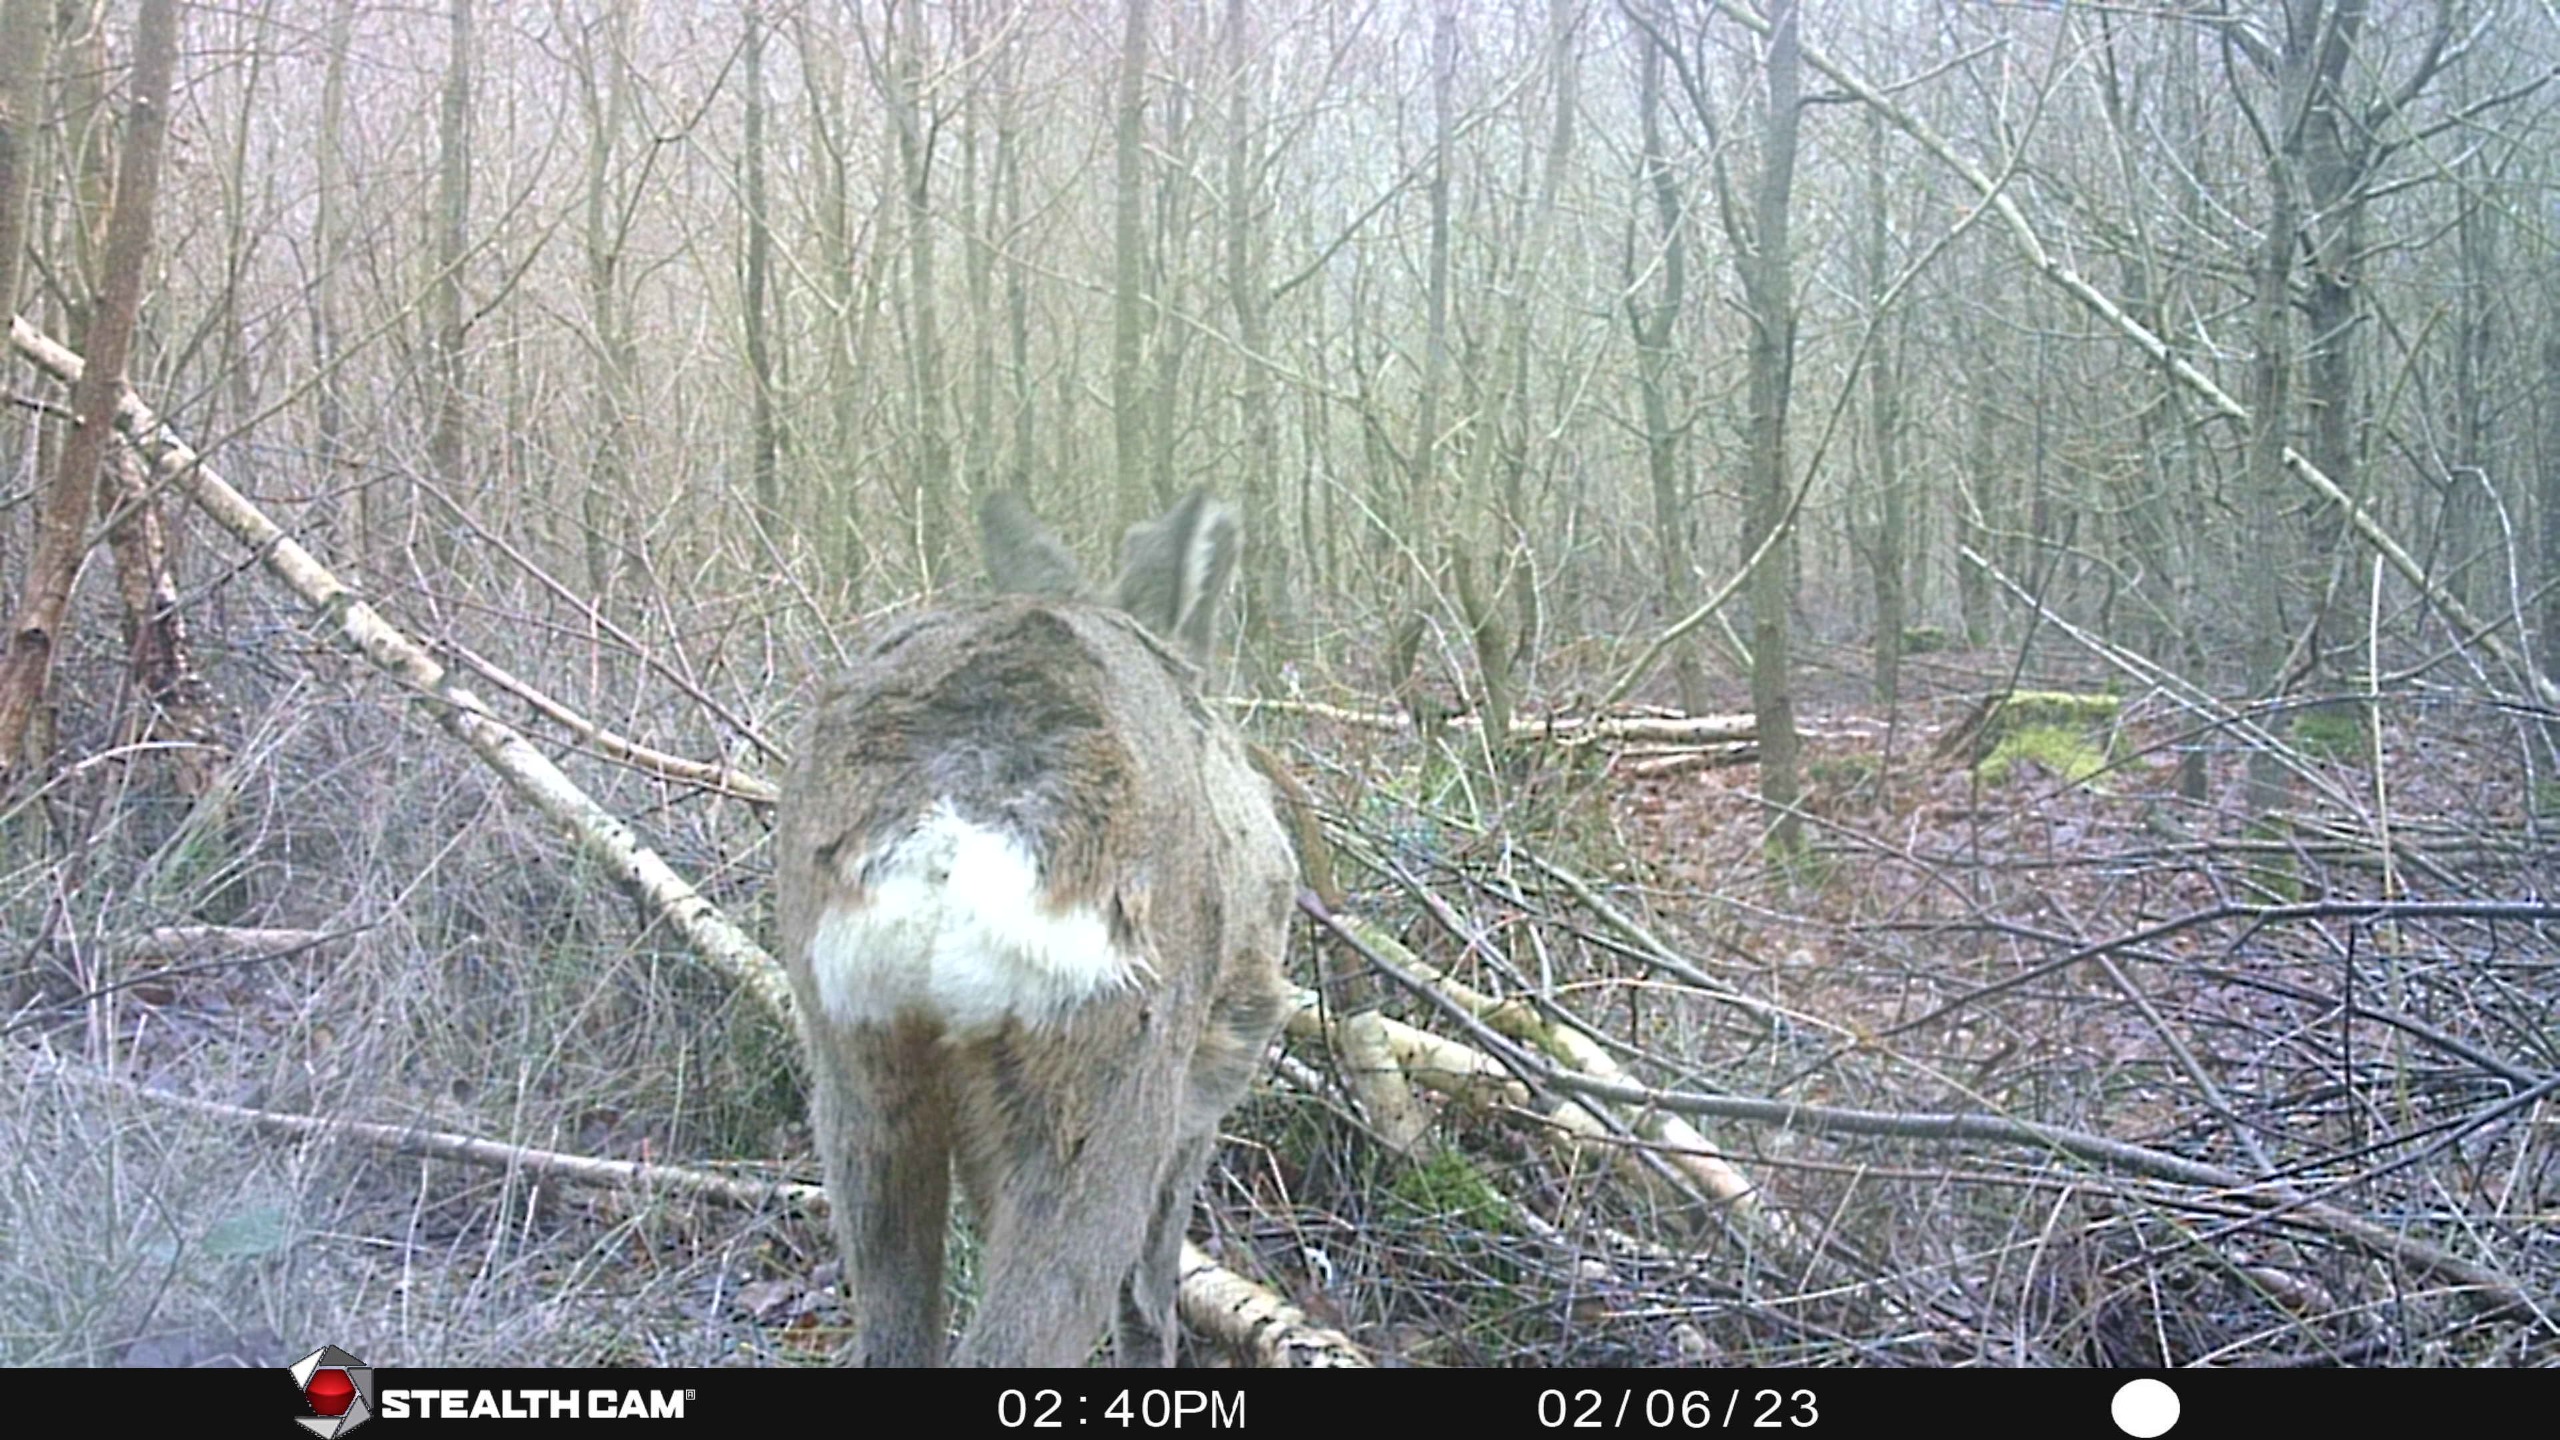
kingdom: Animalia
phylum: Chordata
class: Mammalia
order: Artiodactyla
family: Cervidae
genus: Capreolus
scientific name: Capreolus capreolus
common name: Rådyr
